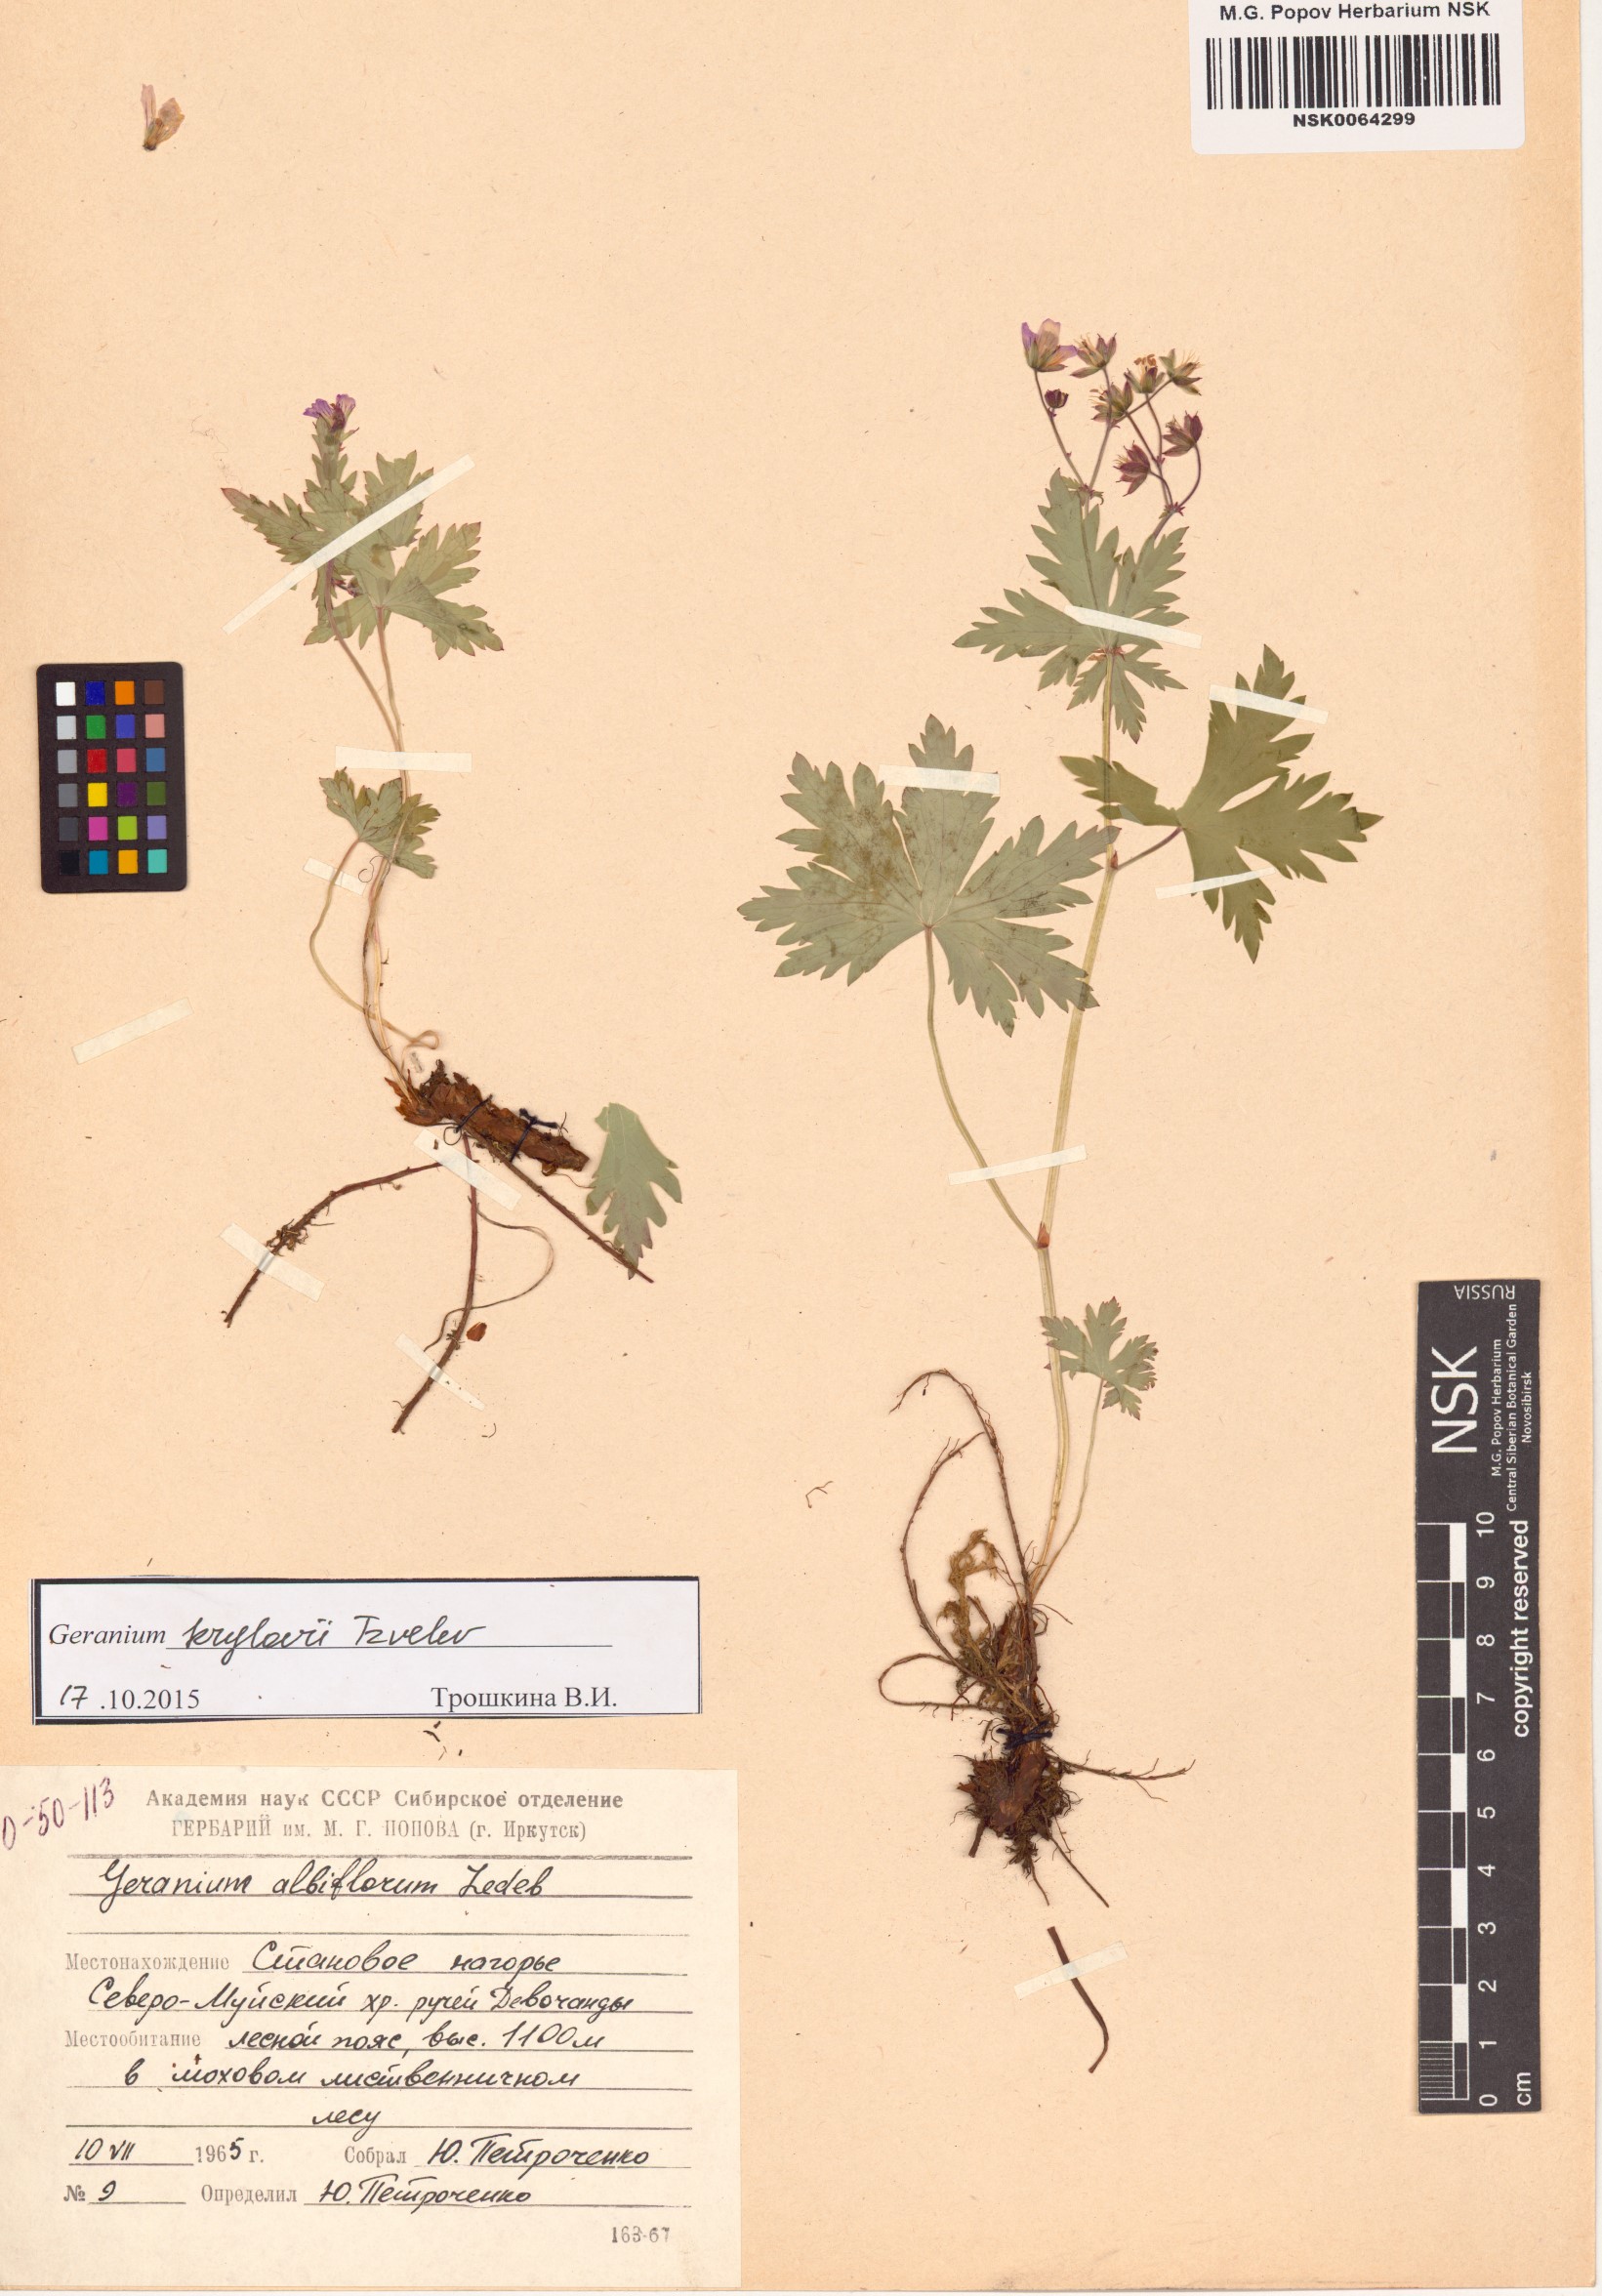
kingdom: Plantae
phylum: Tracheophyta
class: Magnoliopsida
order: Geraniales
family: Geraniaceae
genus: Geranium
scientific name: Geranium sylvaticum
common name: Wood crane's-bill
